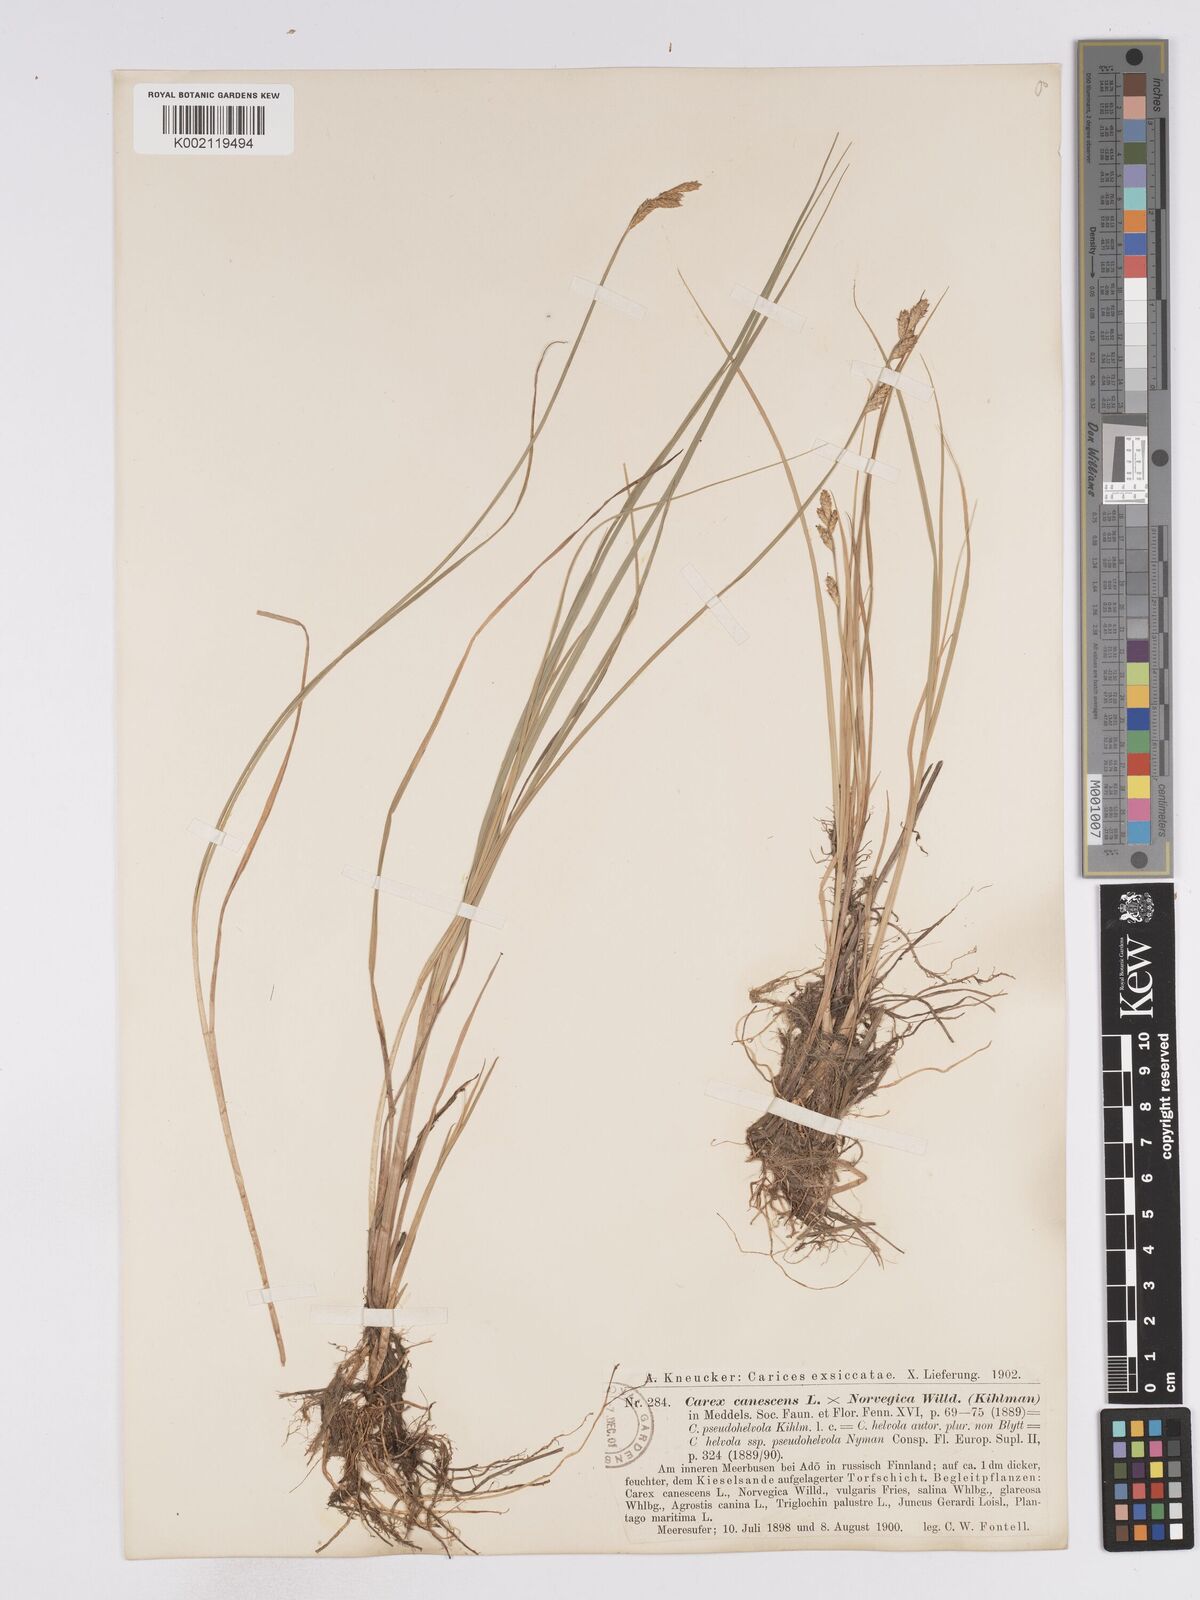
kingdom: Plantae
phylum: Tracheophyta
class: Liliopsida
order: Poales
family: Cyperaceae
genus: Carex
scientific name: Carex mackenziei
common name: Mackenzie's sedge
